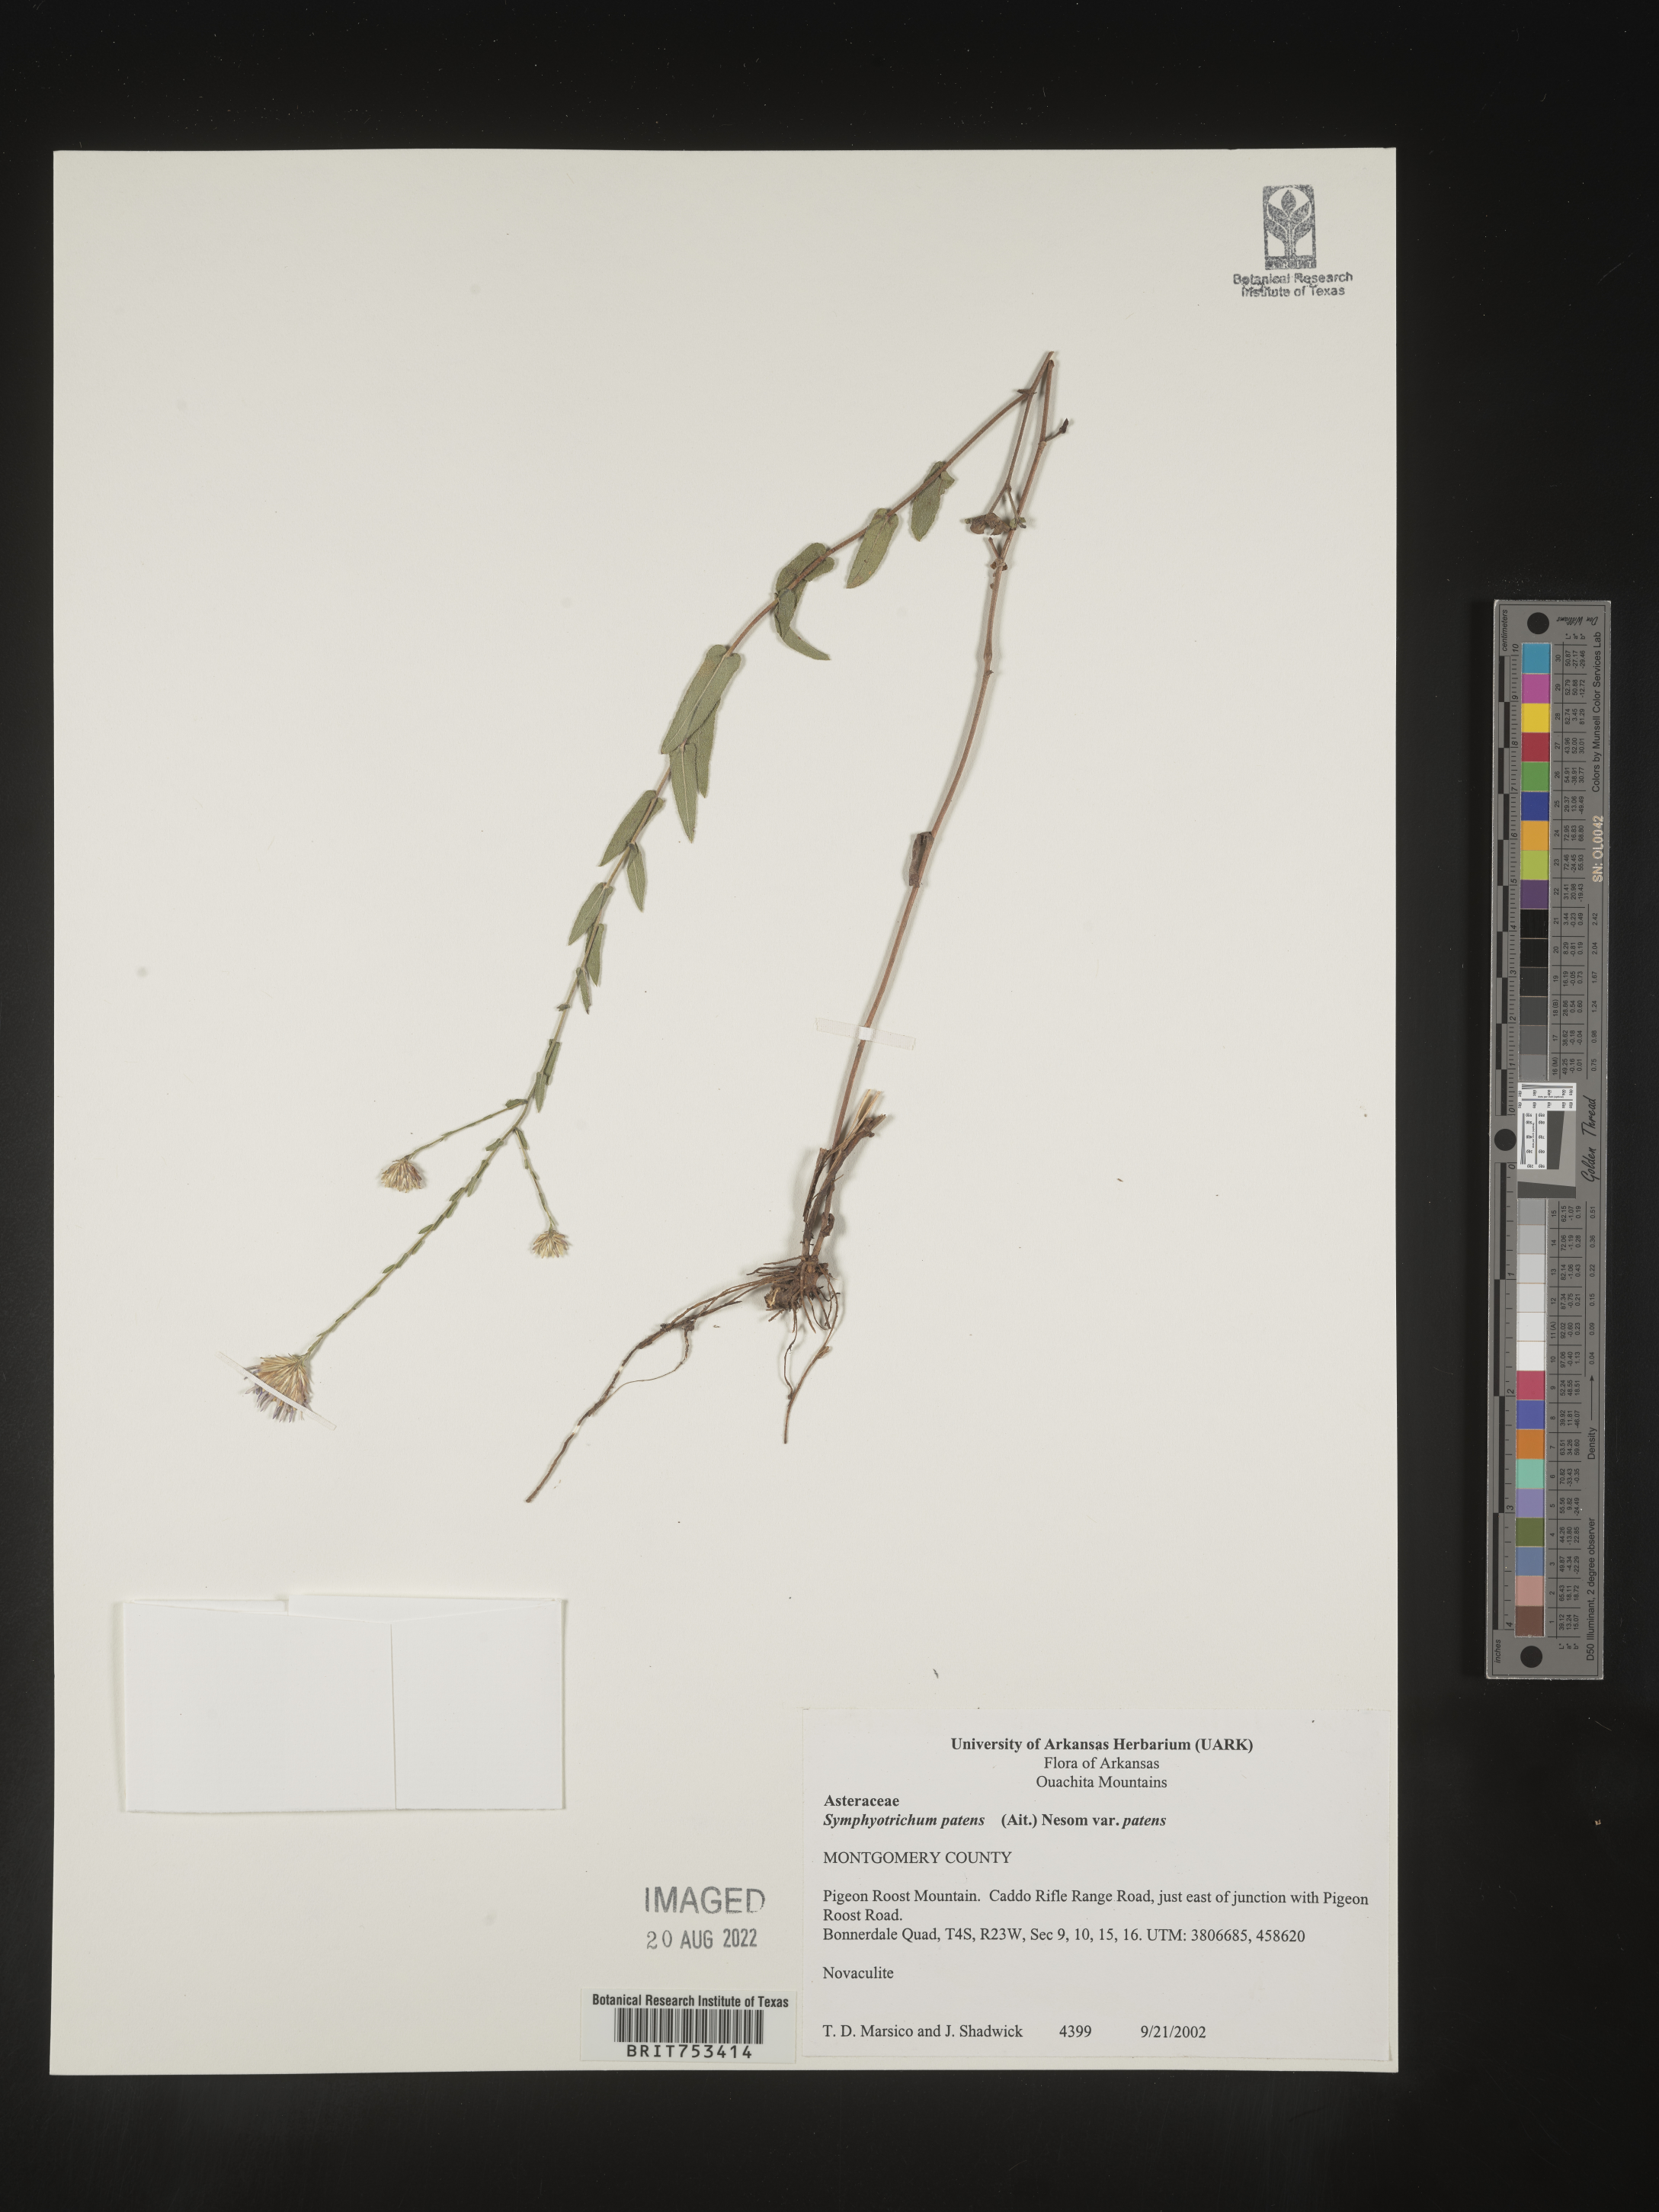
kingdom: Plantae
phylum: Tracheophyta
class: Magnoliopsida
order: Asterales
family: Asteraceae
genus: Symphyotrichum
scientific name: Symphyotrichum patens
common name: Late purple aster
